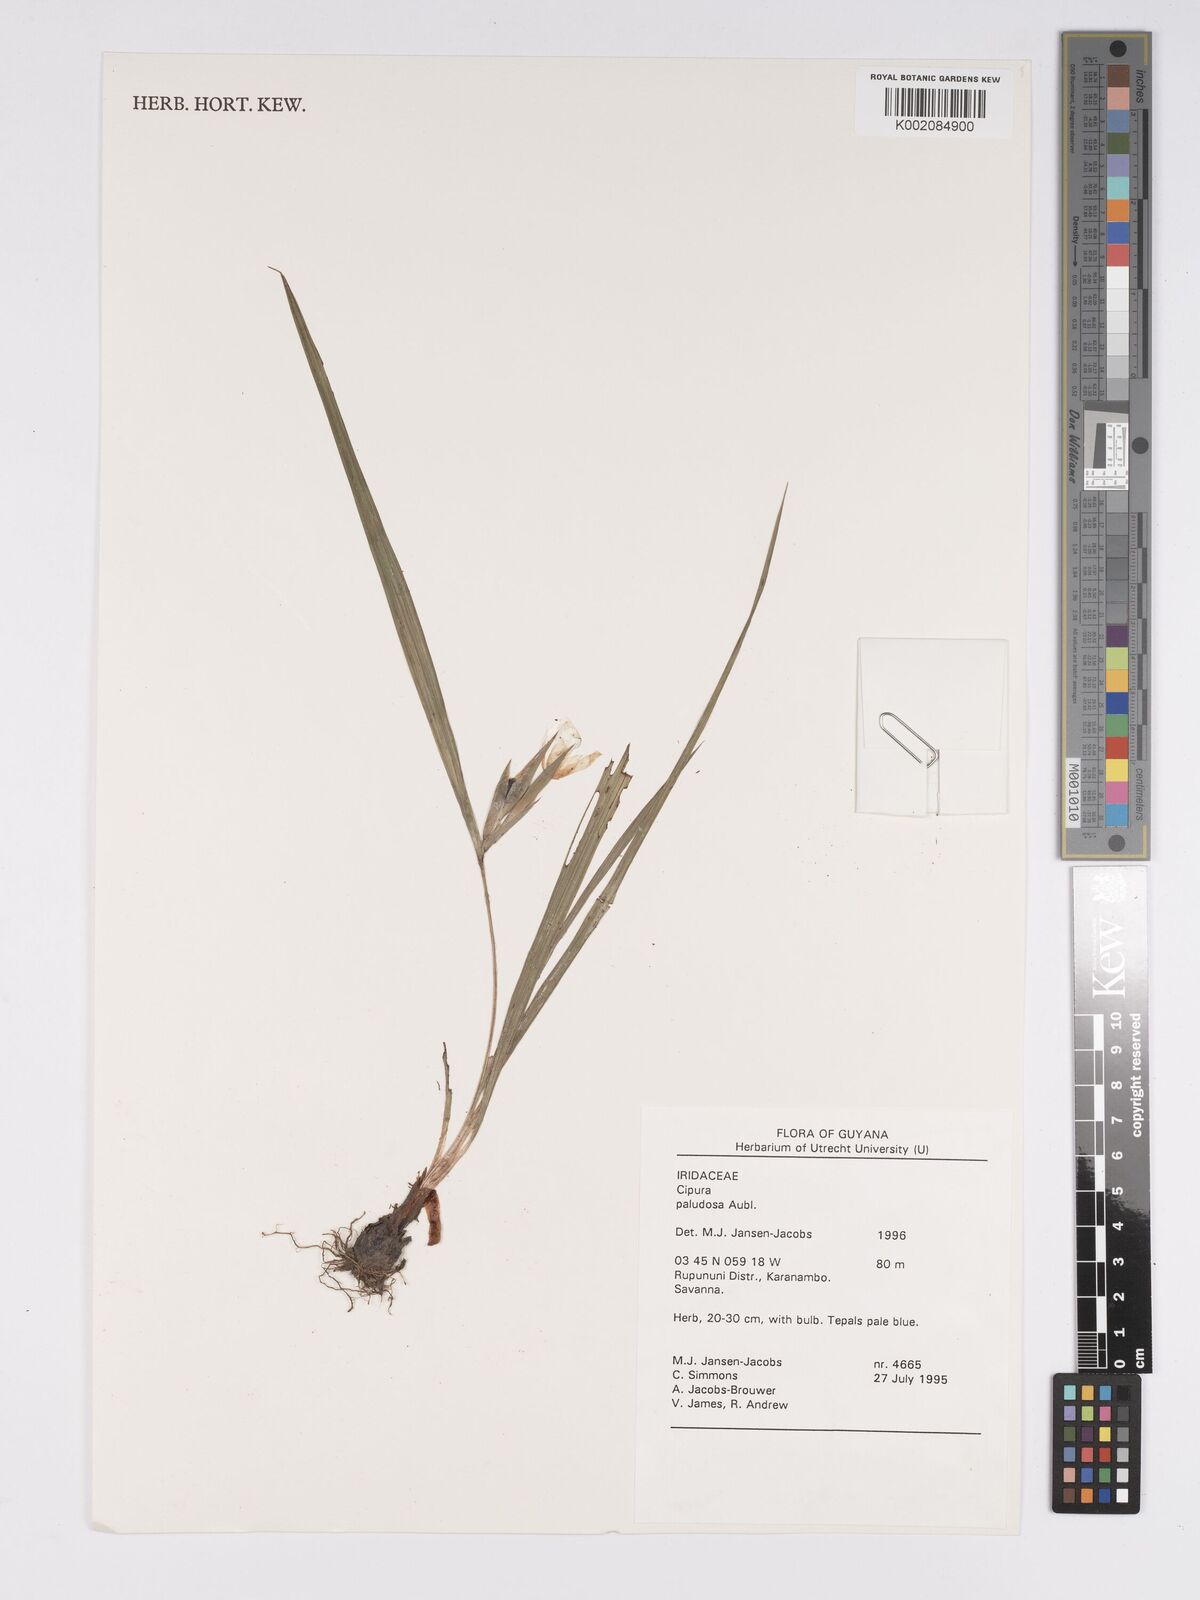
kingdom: Plantae
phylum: Tracheophyta
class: Liliopsida
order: Asparagales
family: Iridaceae
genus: Cipura
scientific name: Cipura paludosa
